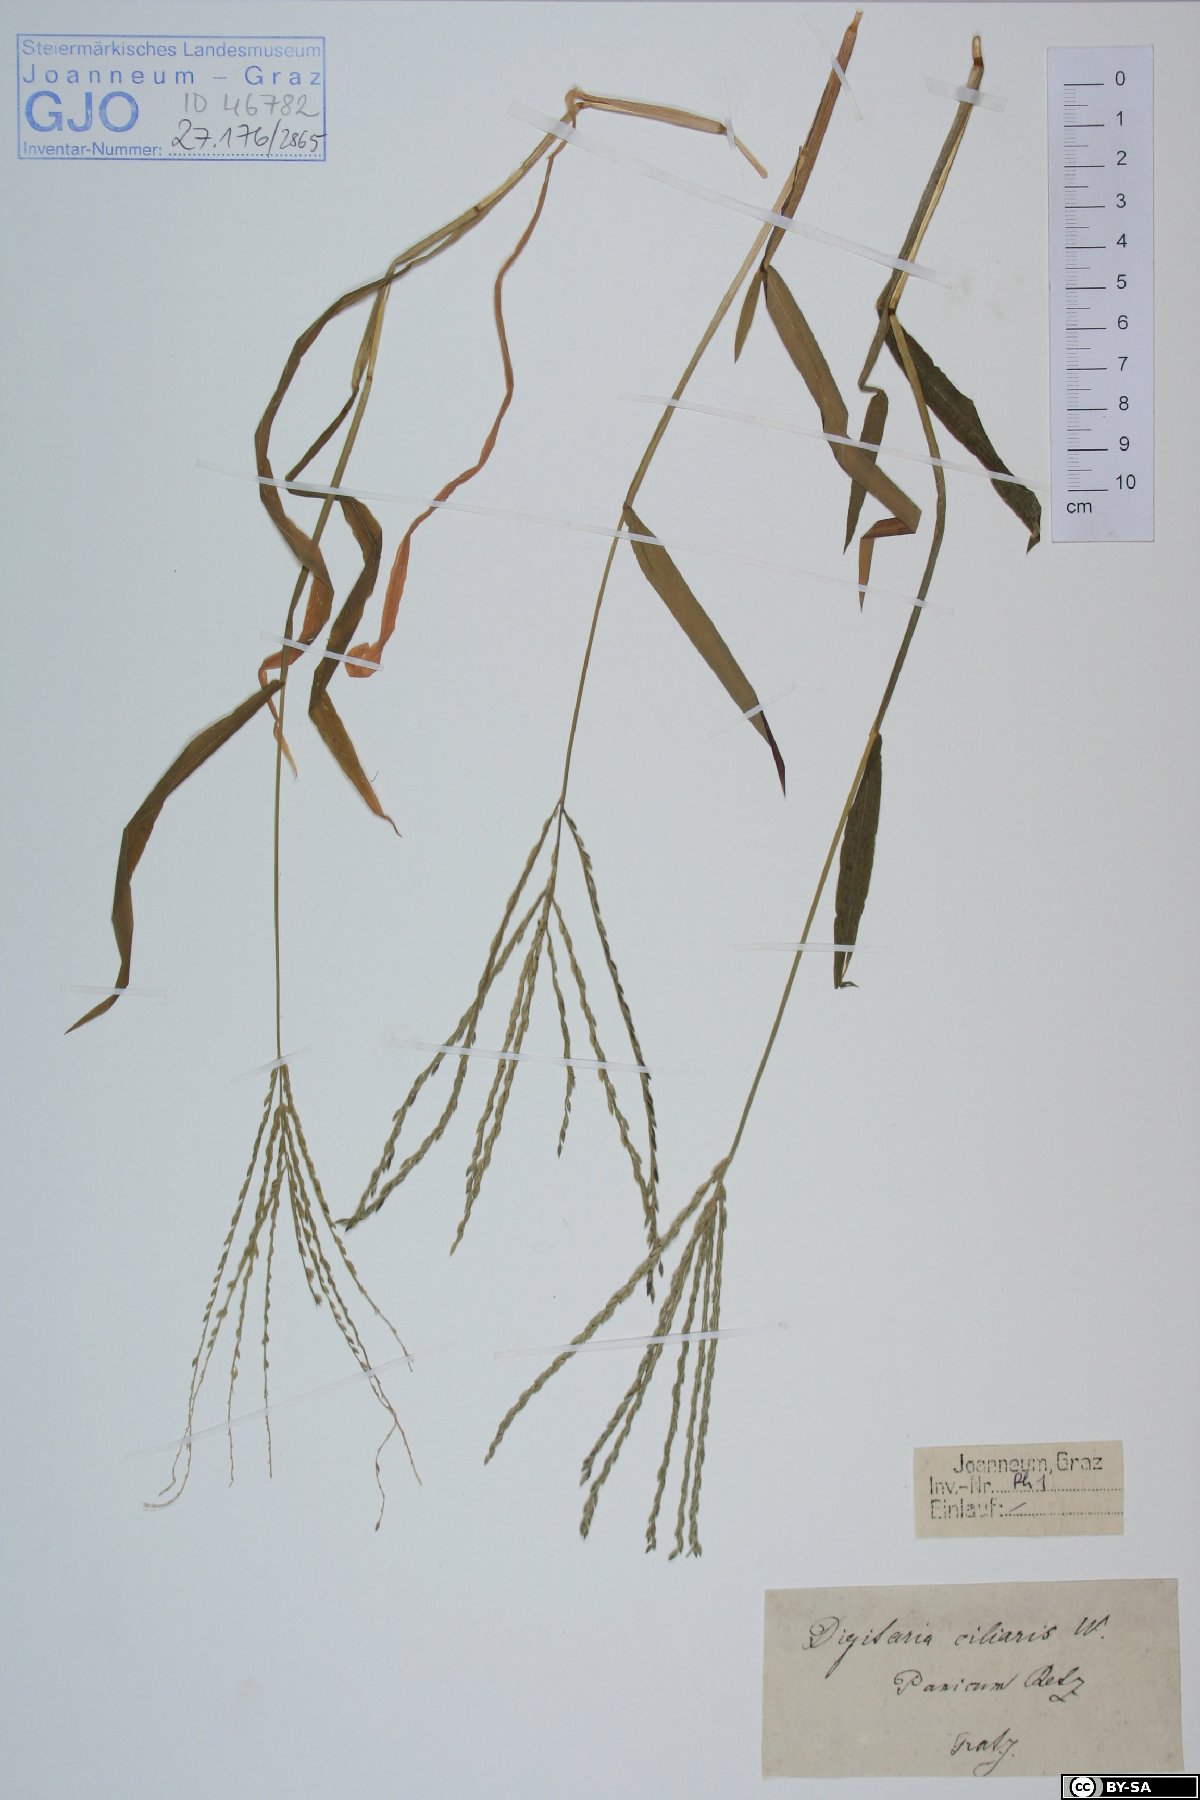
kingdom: Plantae
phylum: Tracheophyta
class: Liliopsida
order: Poales
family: Poaceae
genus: Digitaria
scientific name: Digitaria ciliaris
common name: Tropical finger-grass
